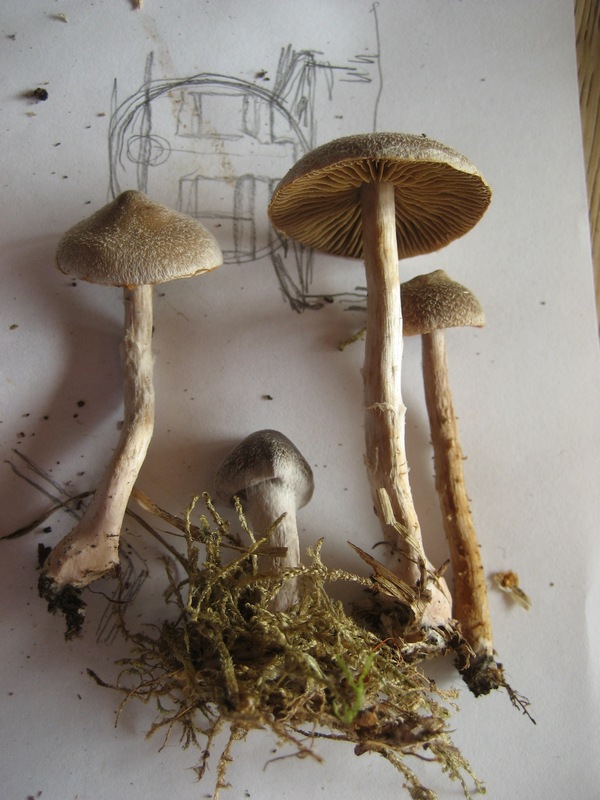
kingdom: Fungi
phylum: Basidiomycota
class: Agaricomycetes
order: Agaricales
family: Cortinariaceae
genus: Cortinarius
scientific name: Cortinarius hemitrichus
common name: hvidfnugget slørhat
